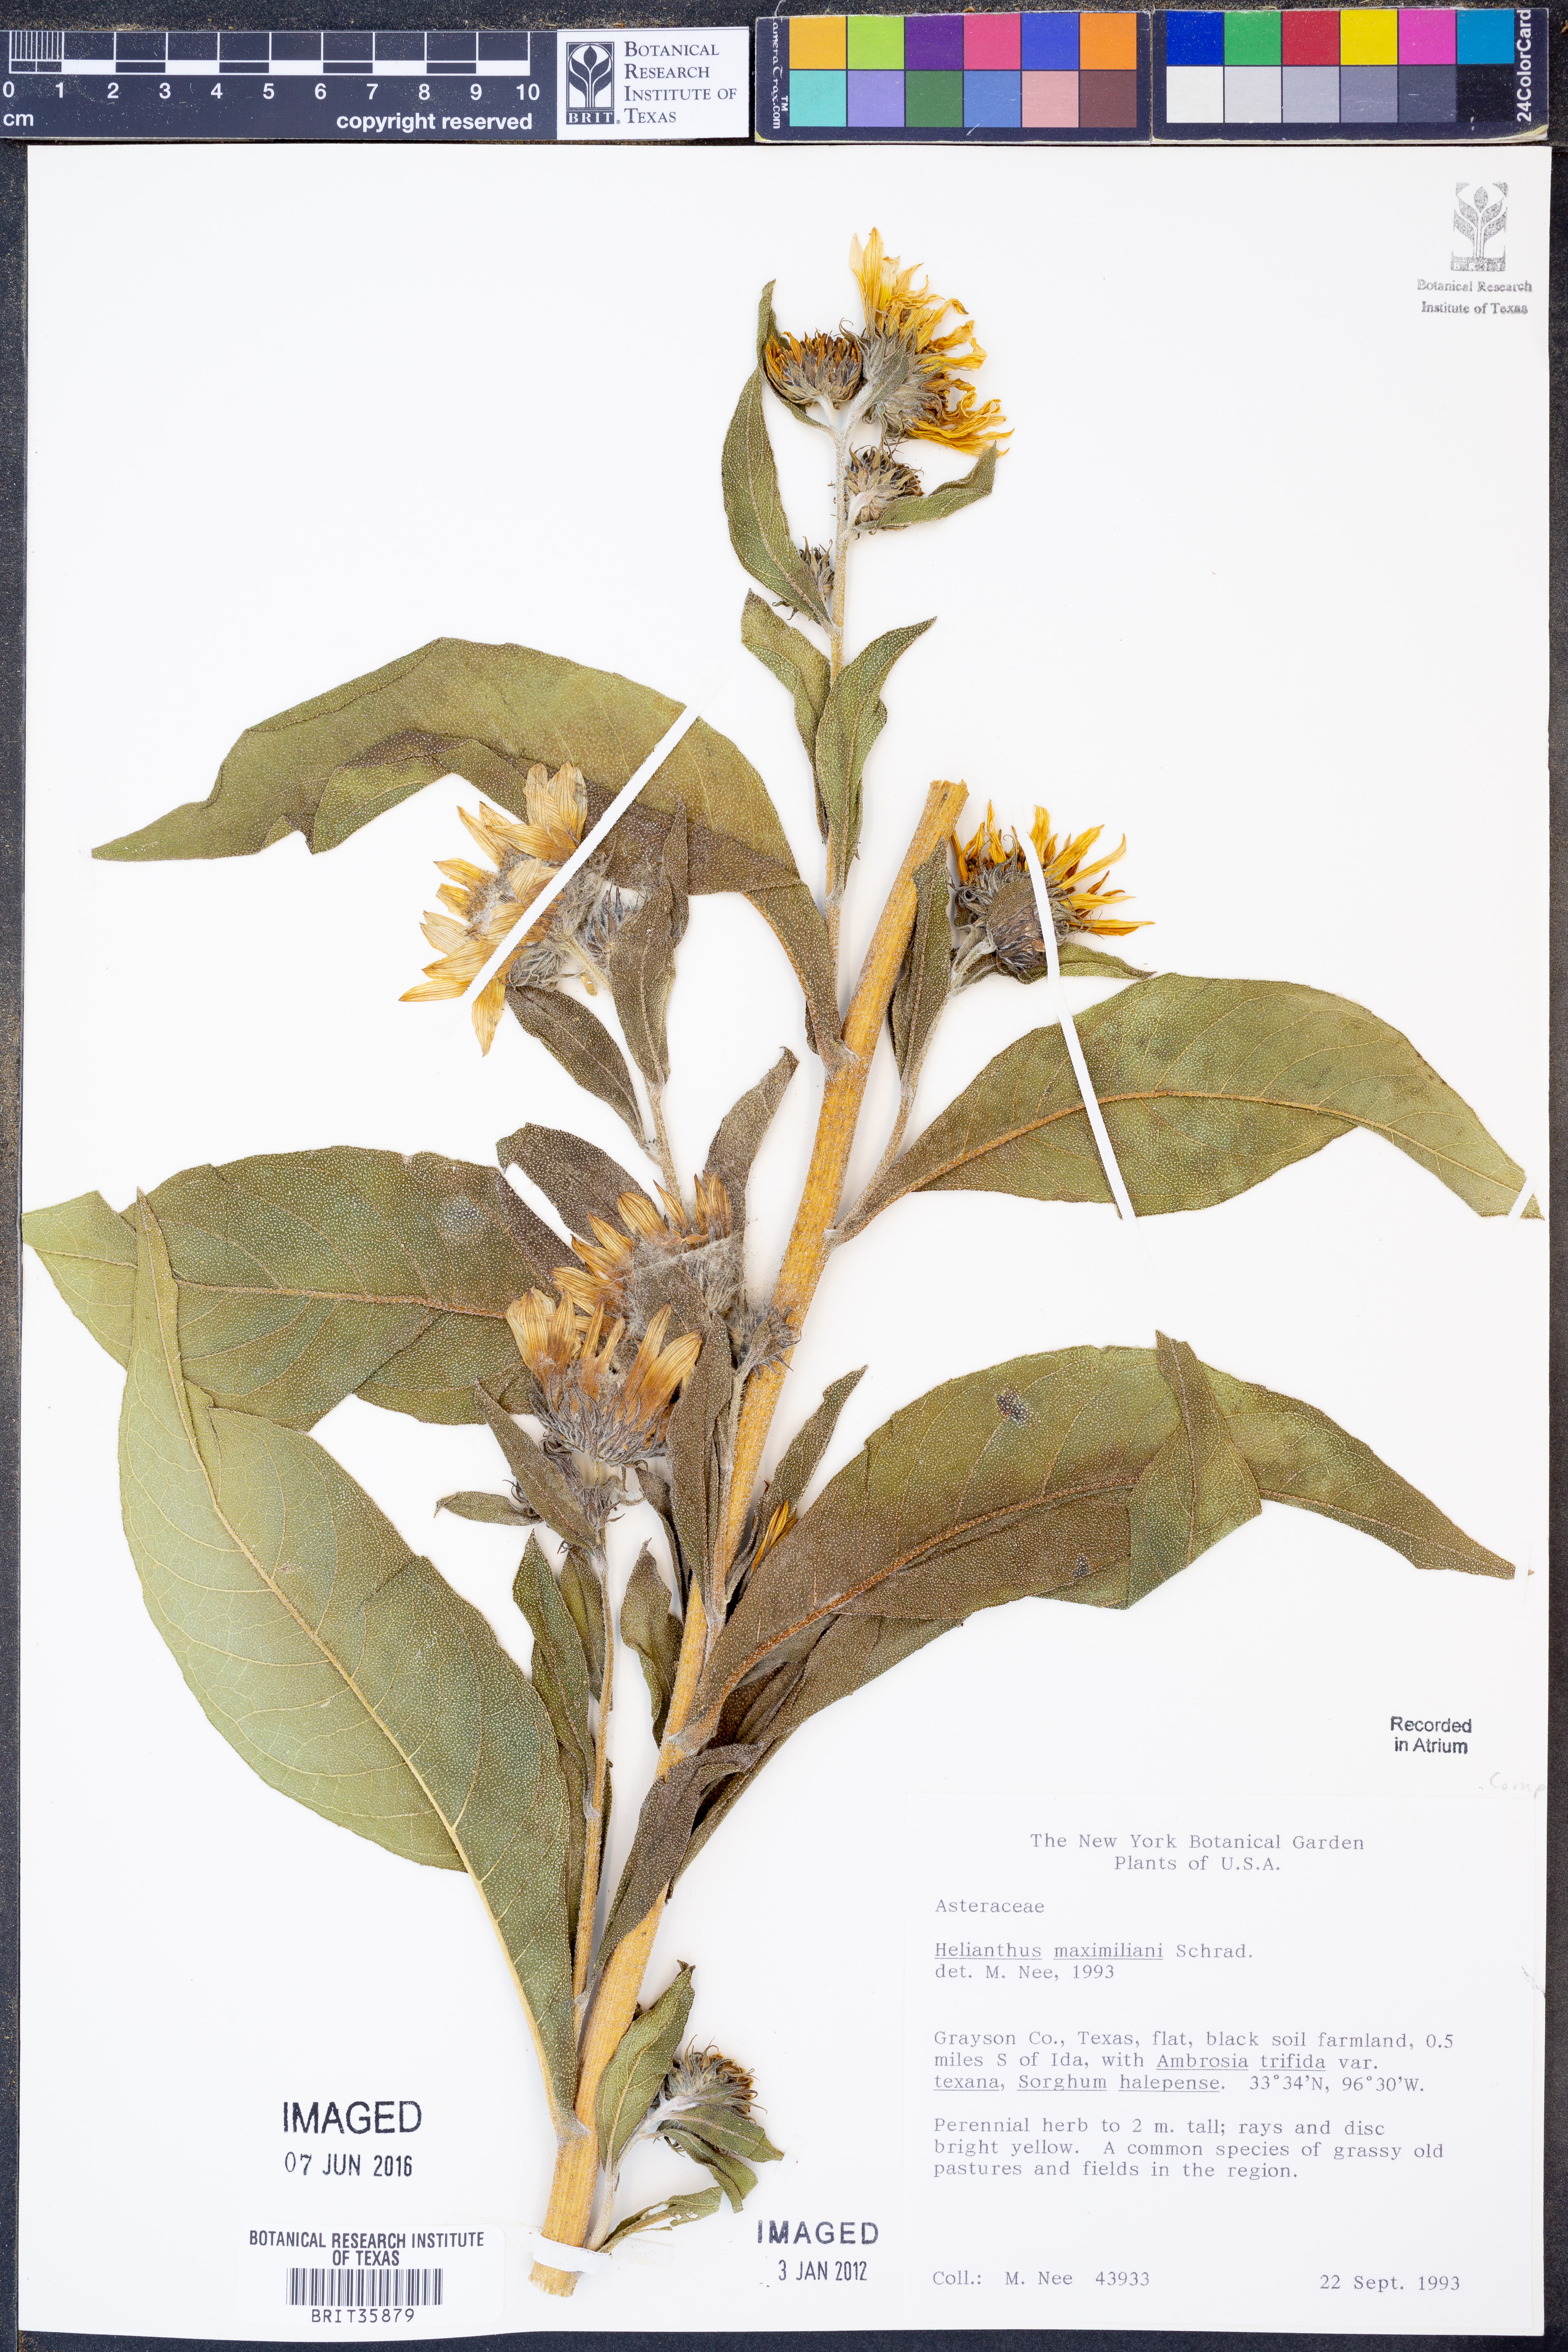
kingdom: Plantae
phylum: Tracheophyta
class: Magnoliopsida
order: Asterales
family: Asteraceae
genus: Helianthus
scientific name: Helianthus maximiliani
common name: Maximilian's sunflower
